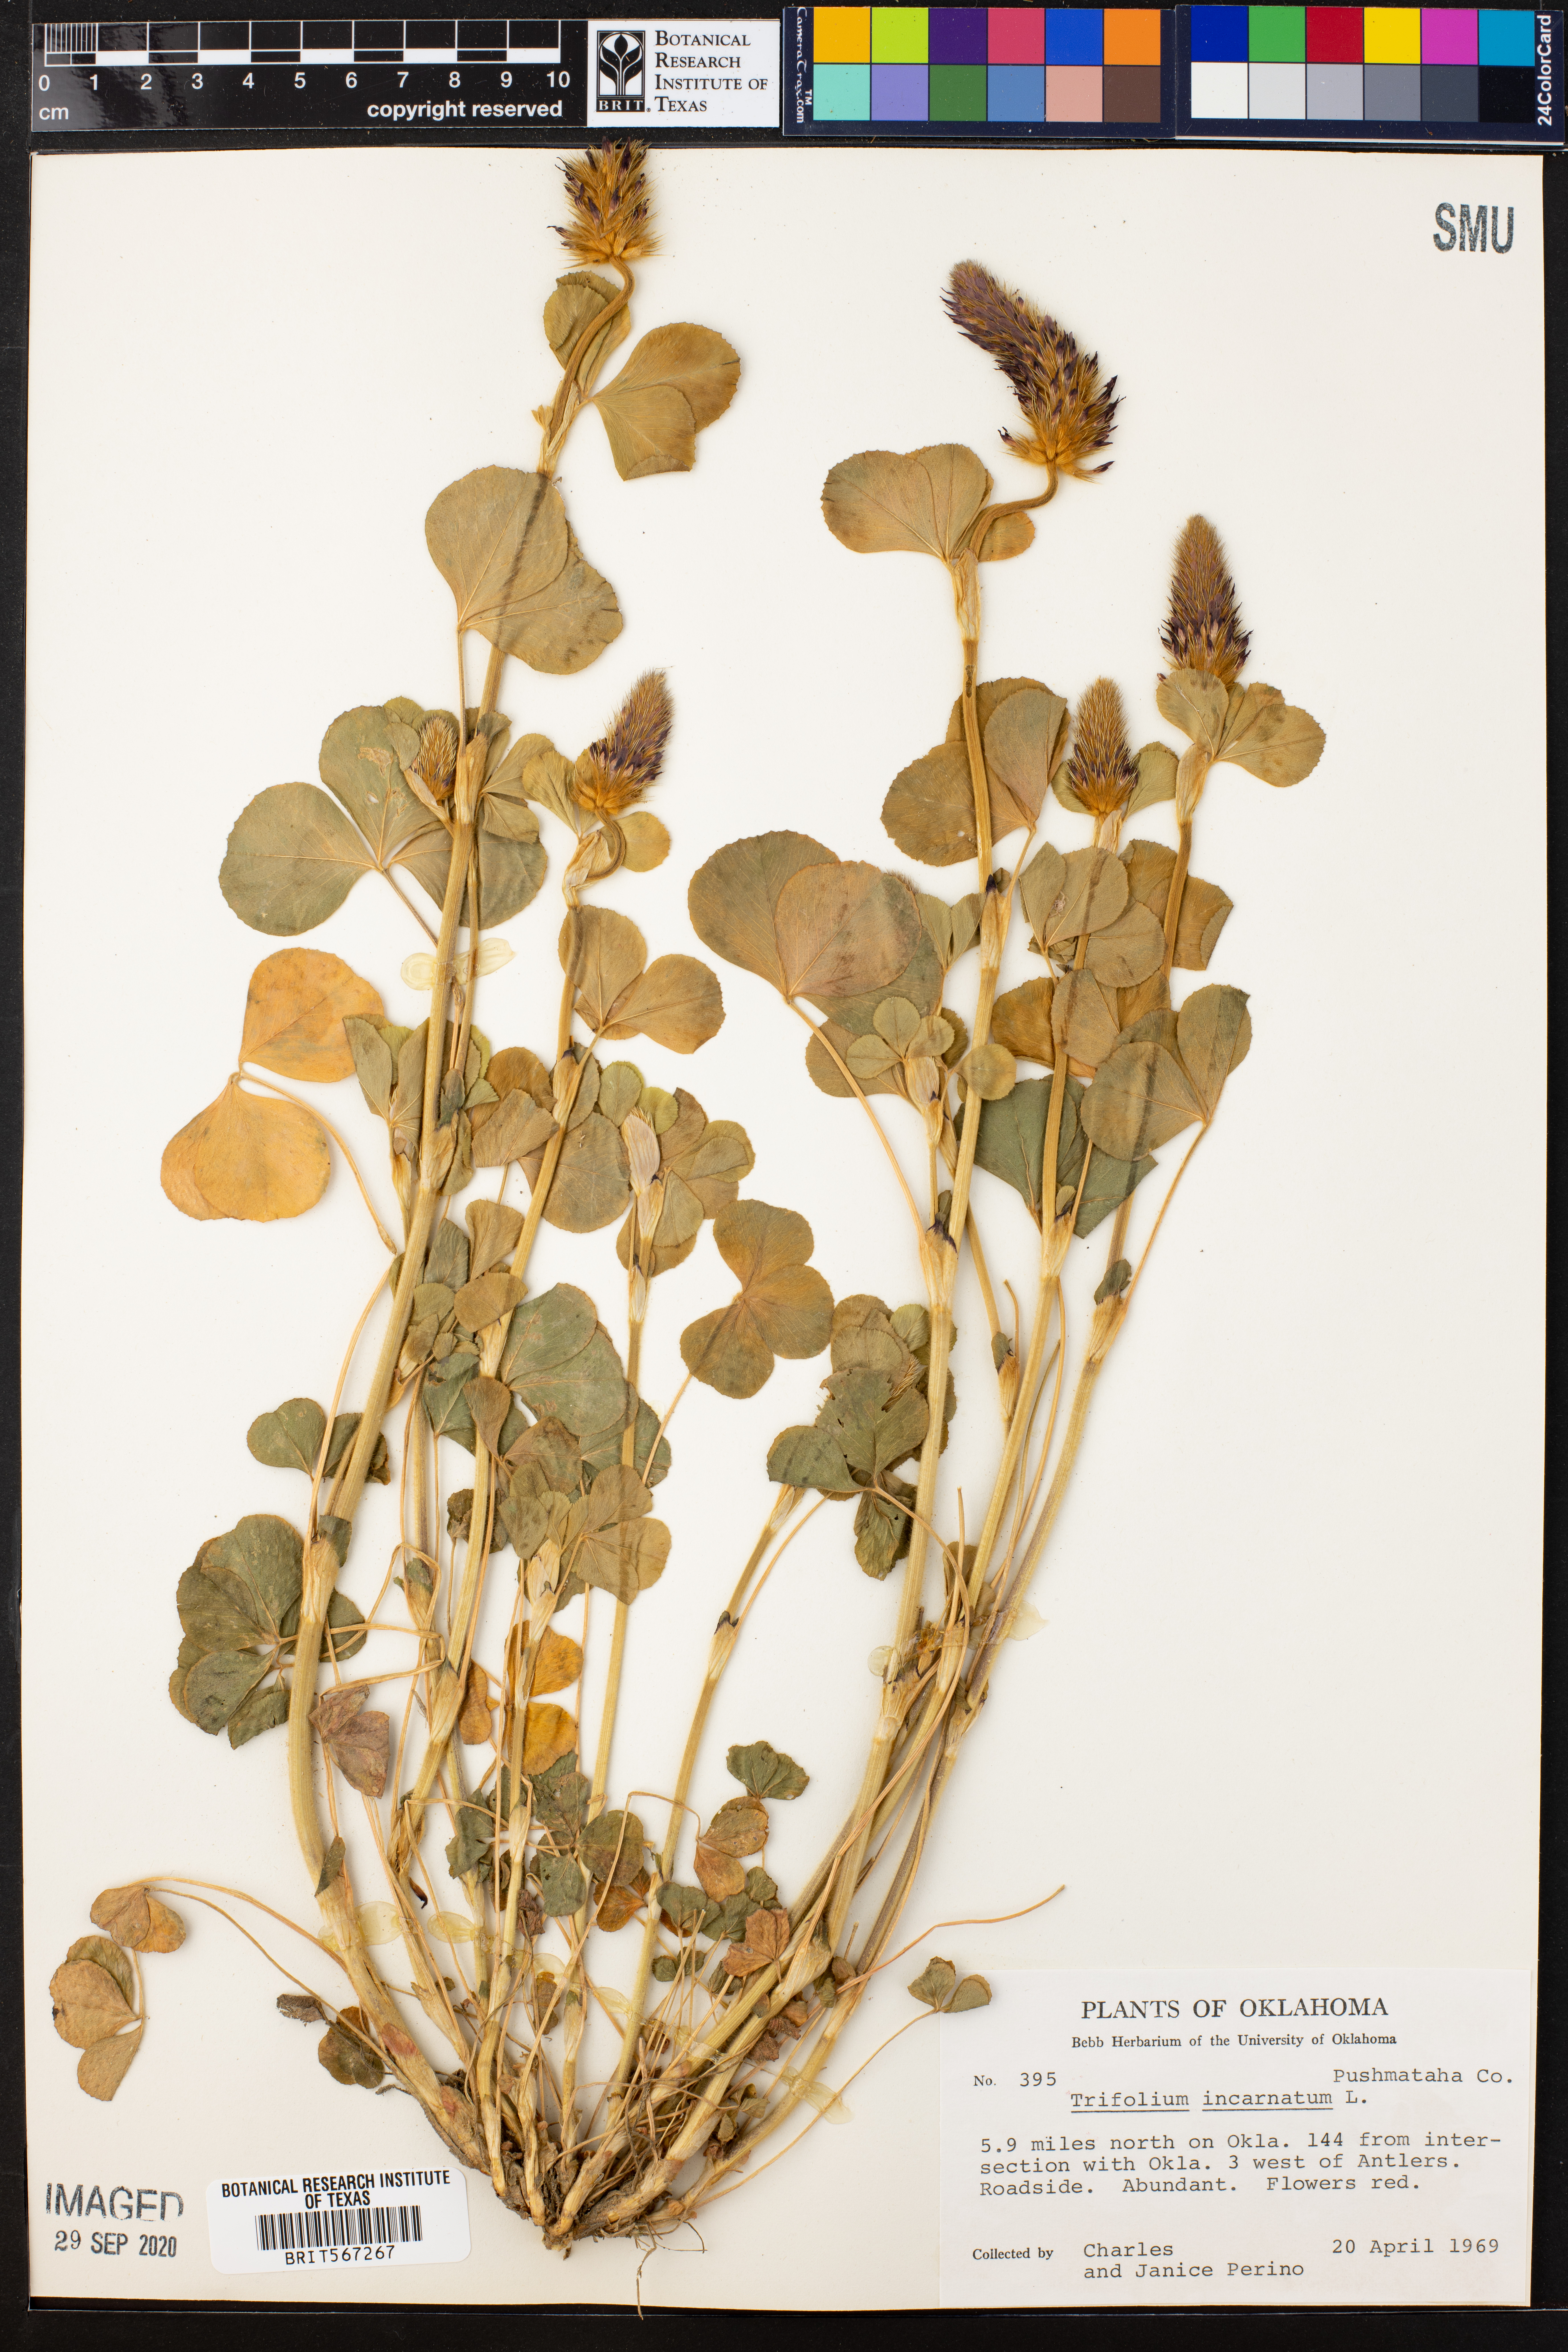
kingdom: Plantae
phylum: Tracheophyta
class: Magnoliopsida
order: Fabales
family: Fabaceae
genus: Trifolium
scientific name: Trifolium incarnatum
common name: Crimson clover
